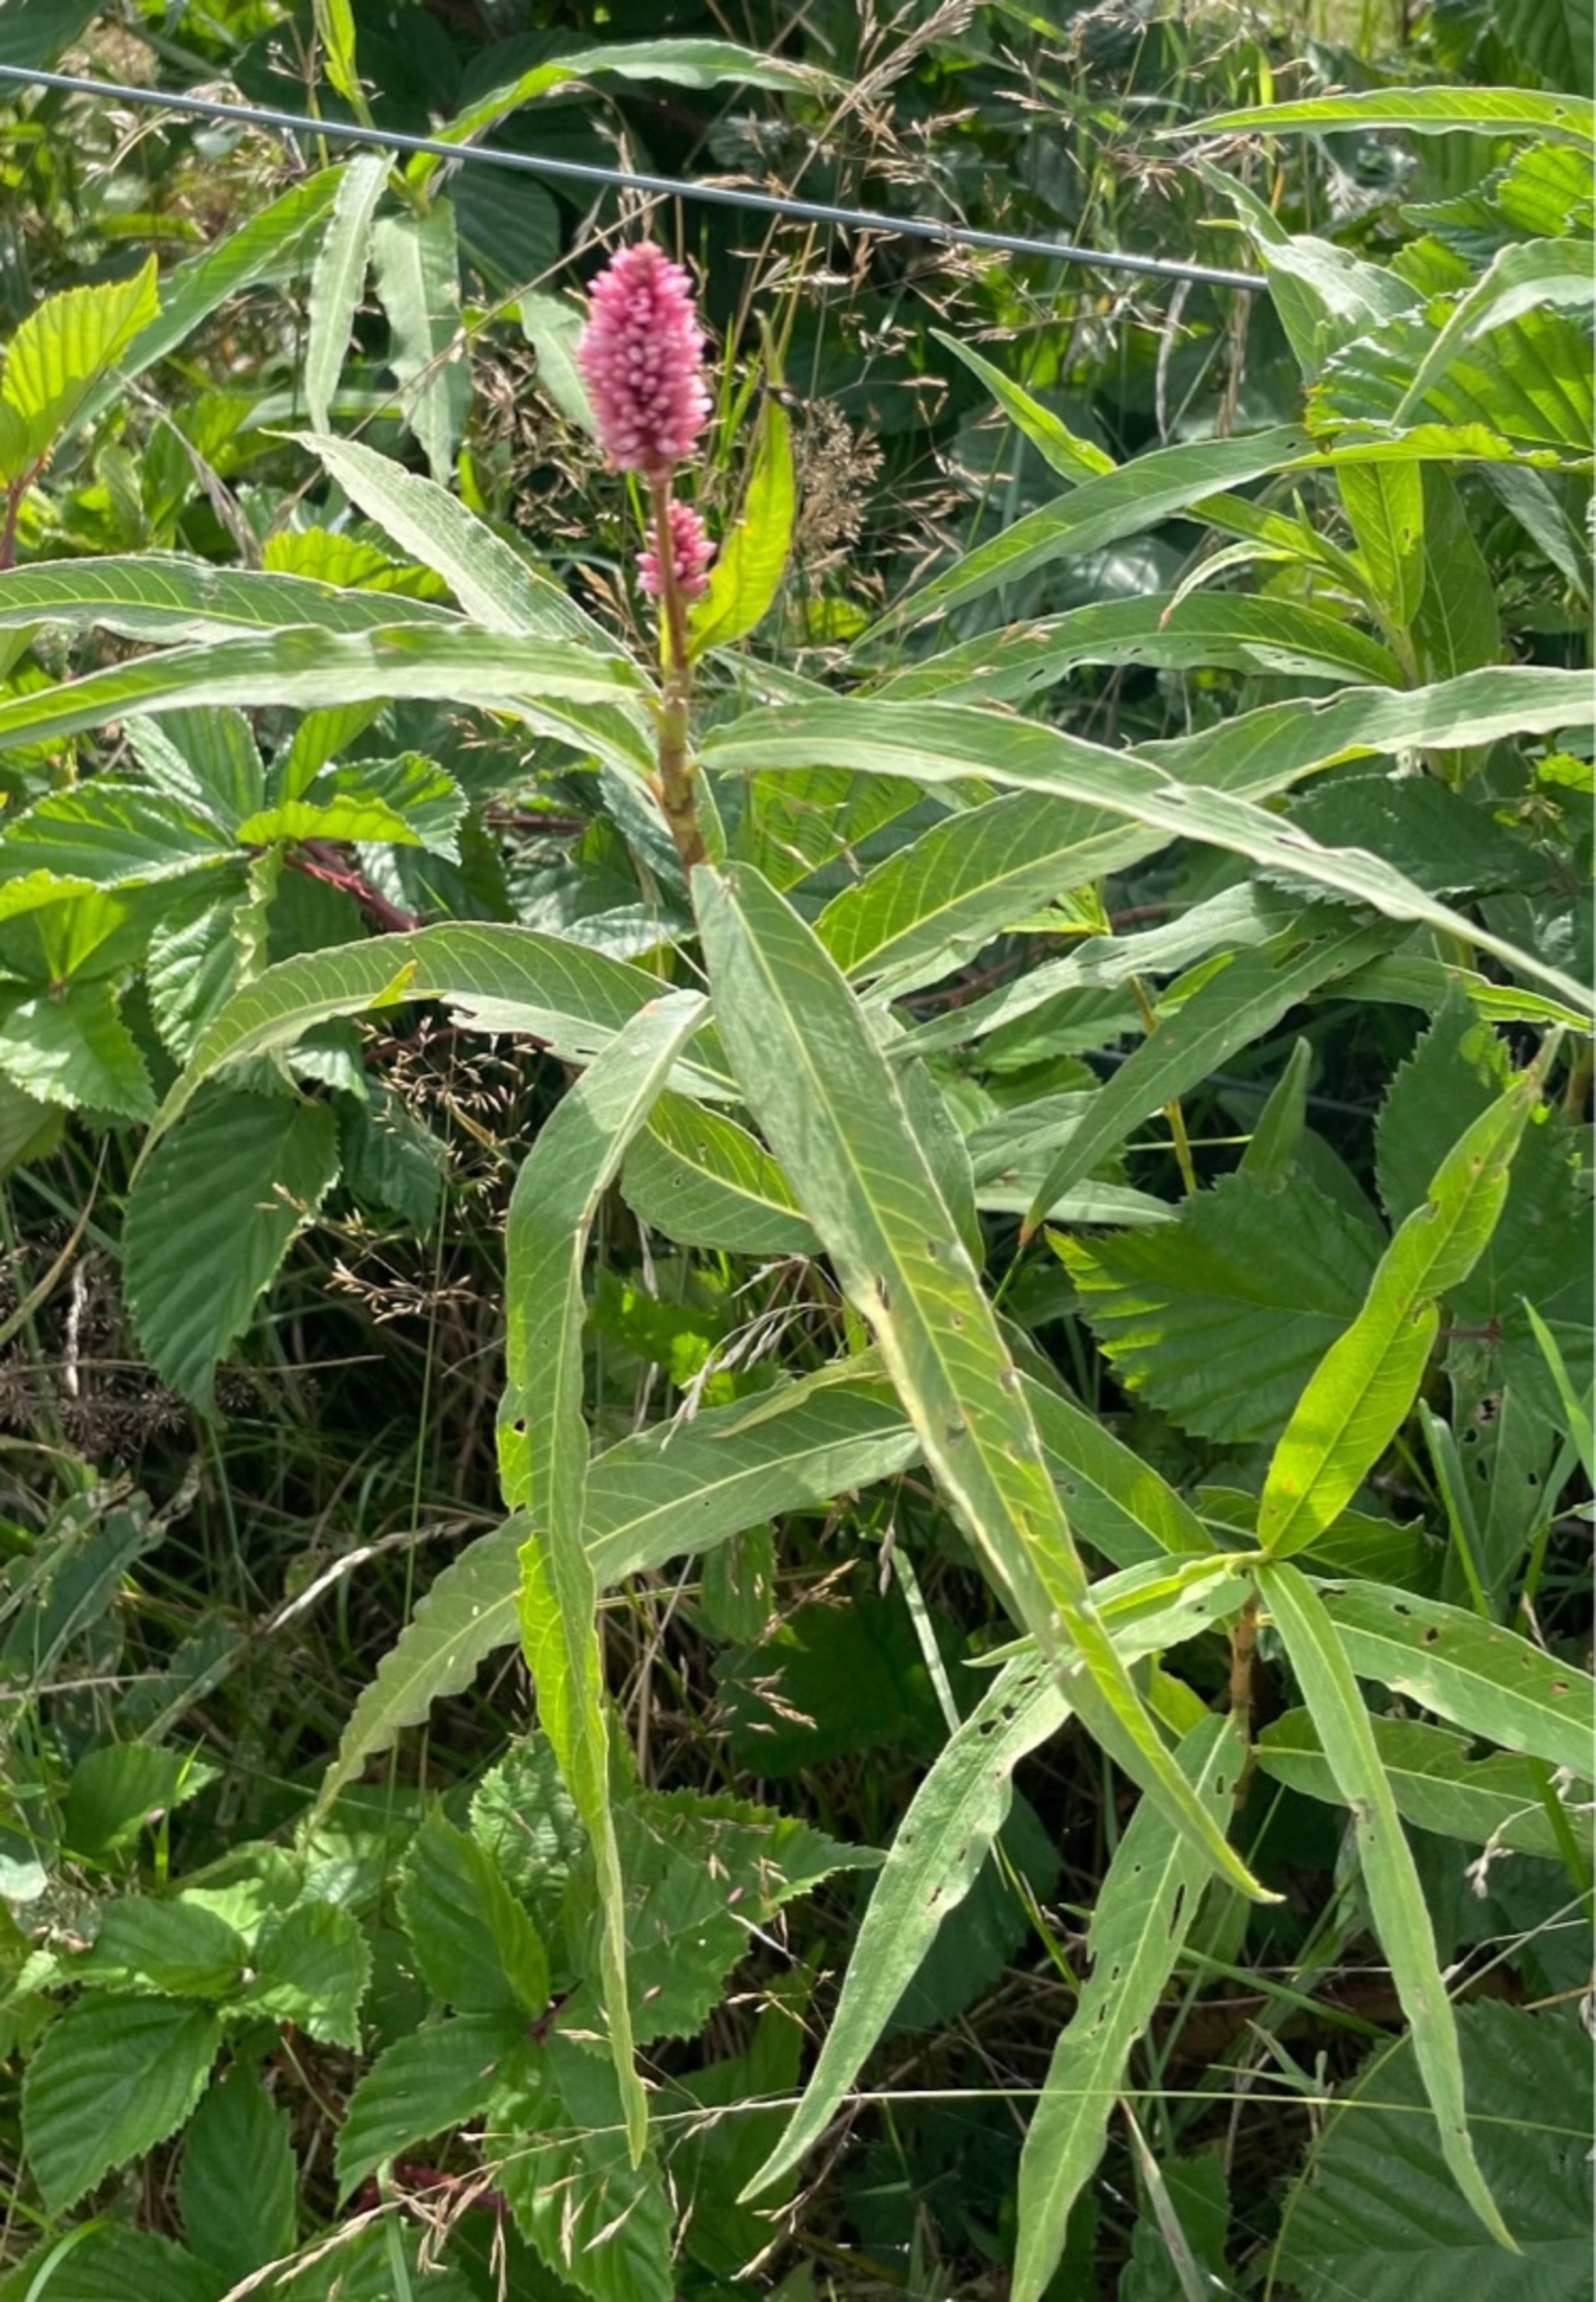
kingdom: Plantae
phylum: Tracheophyta
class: Magnoliopsida
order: Caryophyllales
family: Polygonaceae
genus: Persicaria
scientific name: Persicaria amphibia
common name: Vand-pileurt
